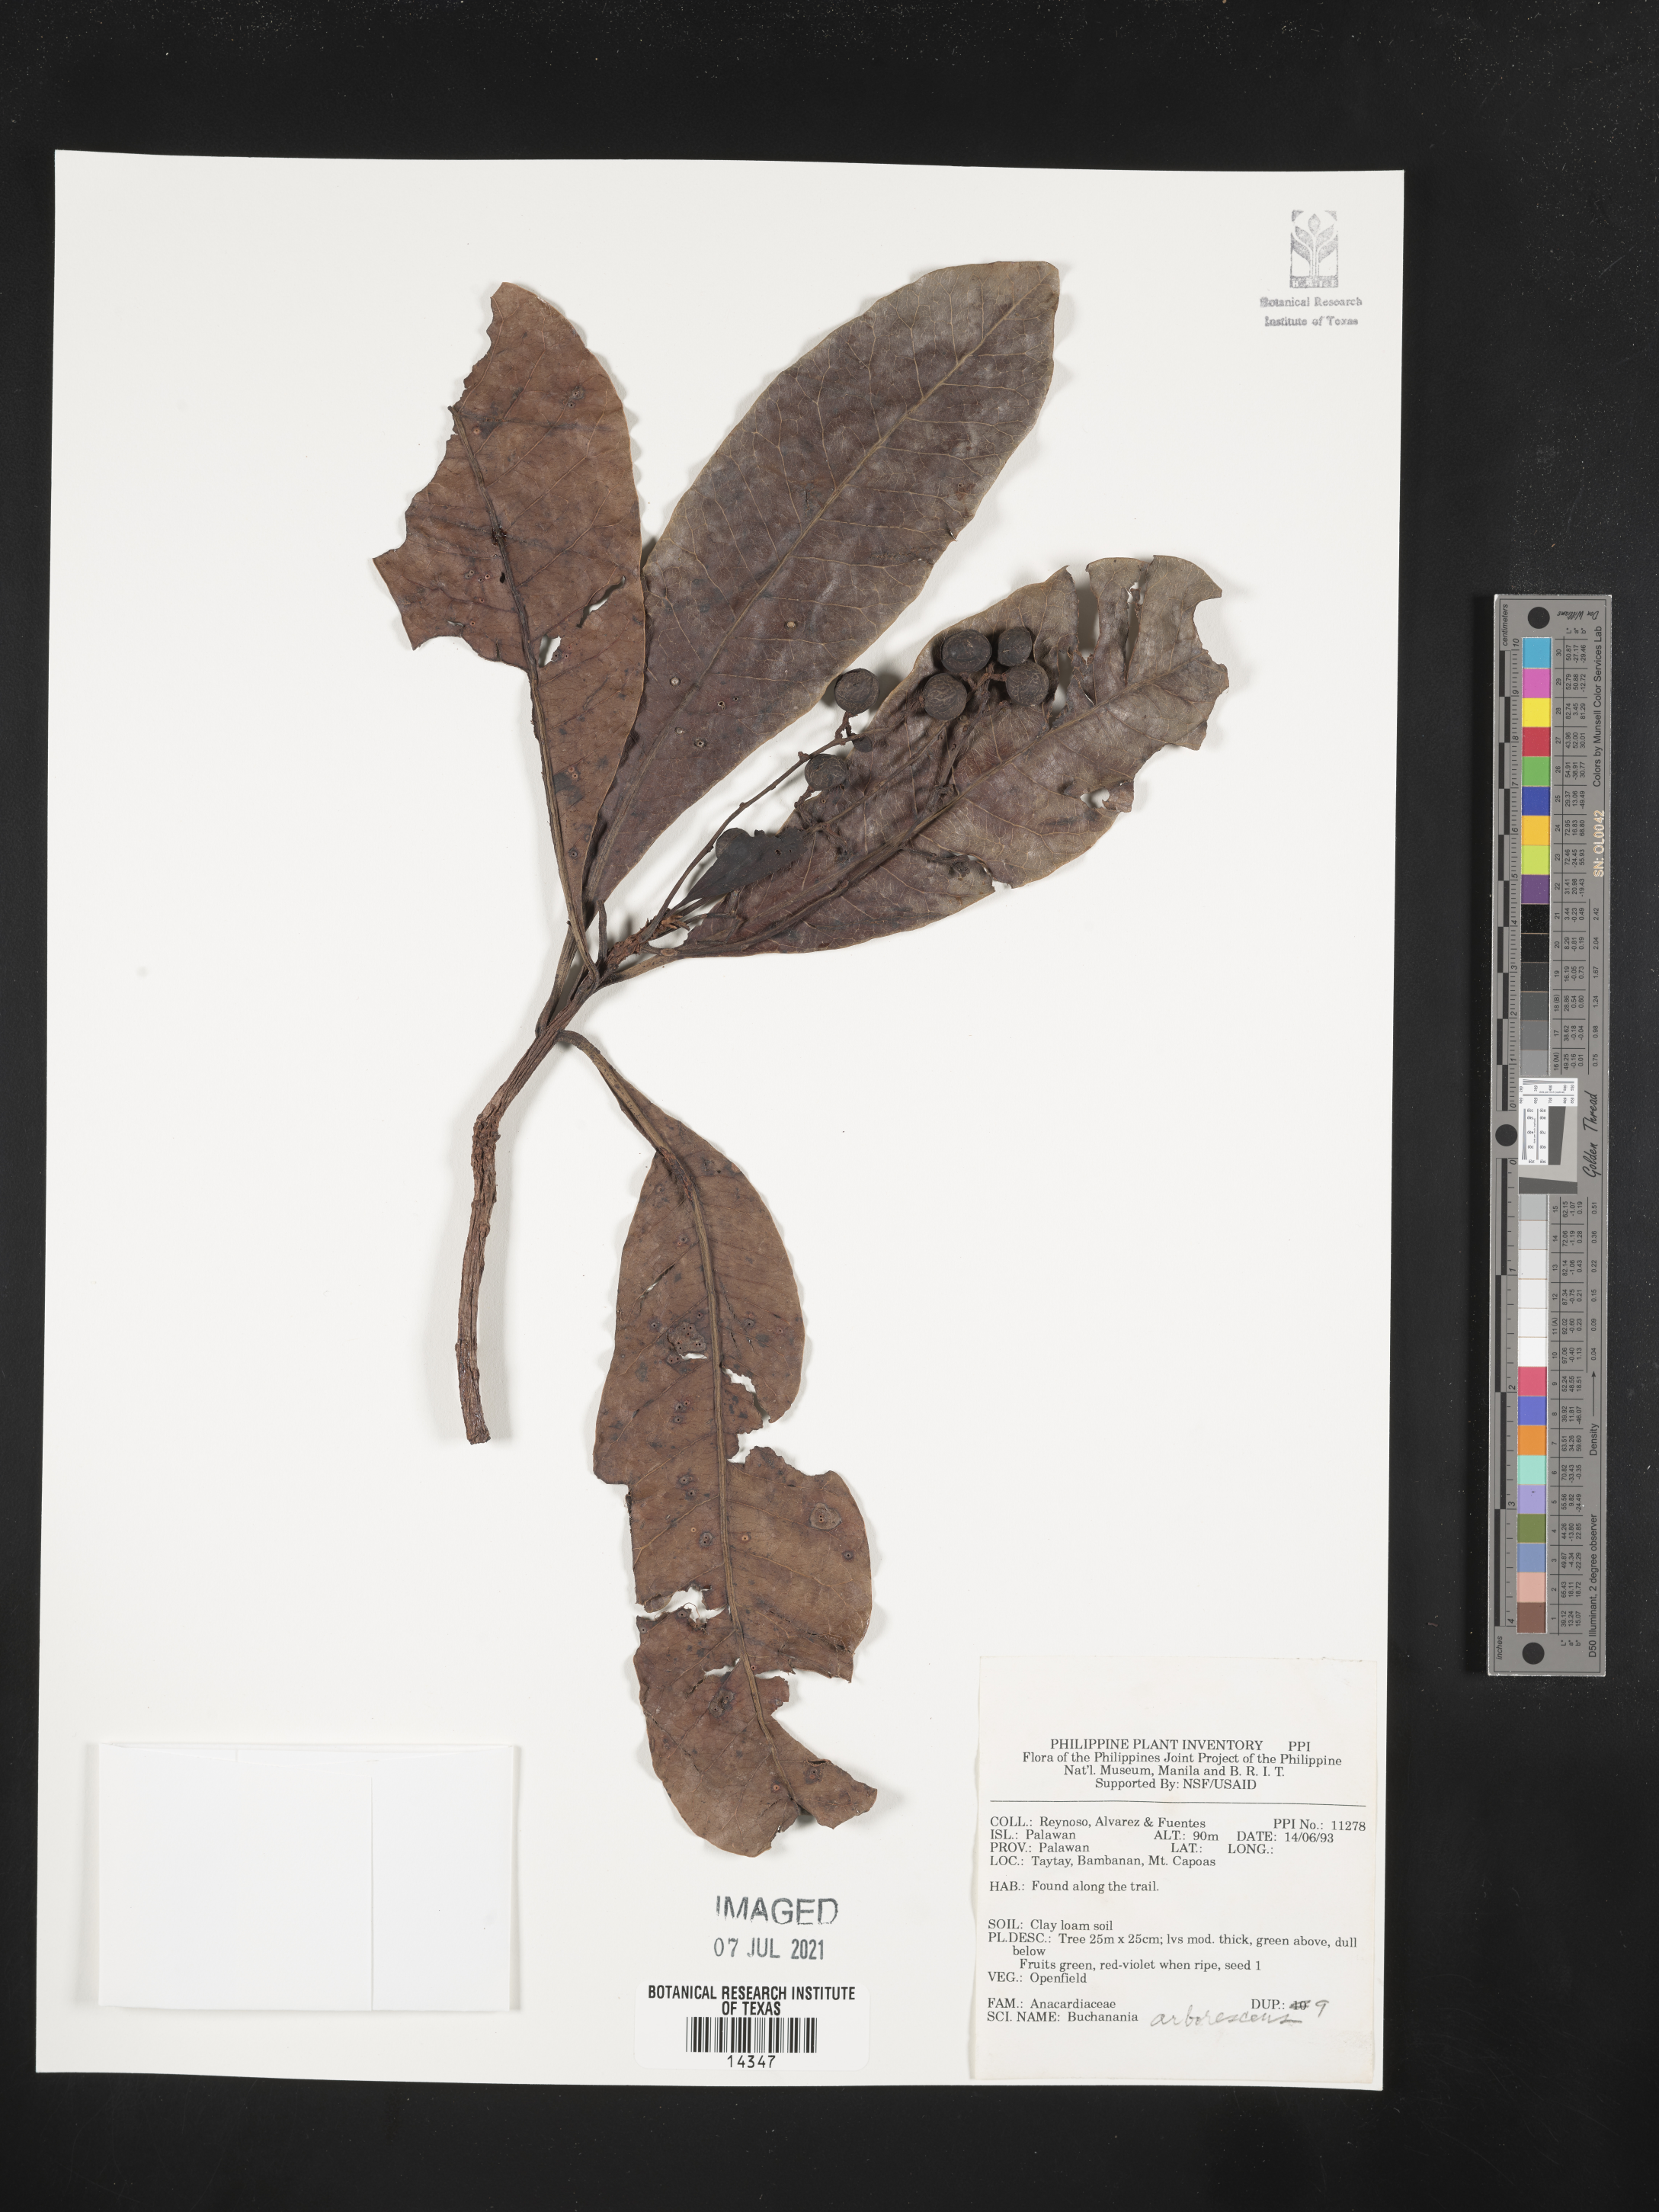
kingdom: Plantae
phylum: Tracheophyta
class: Magnoliopsida
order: Sapindales
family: Anacardiaceae
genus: Buchanania
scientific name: Buchanania arborescens
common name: Sparrow’s mango
